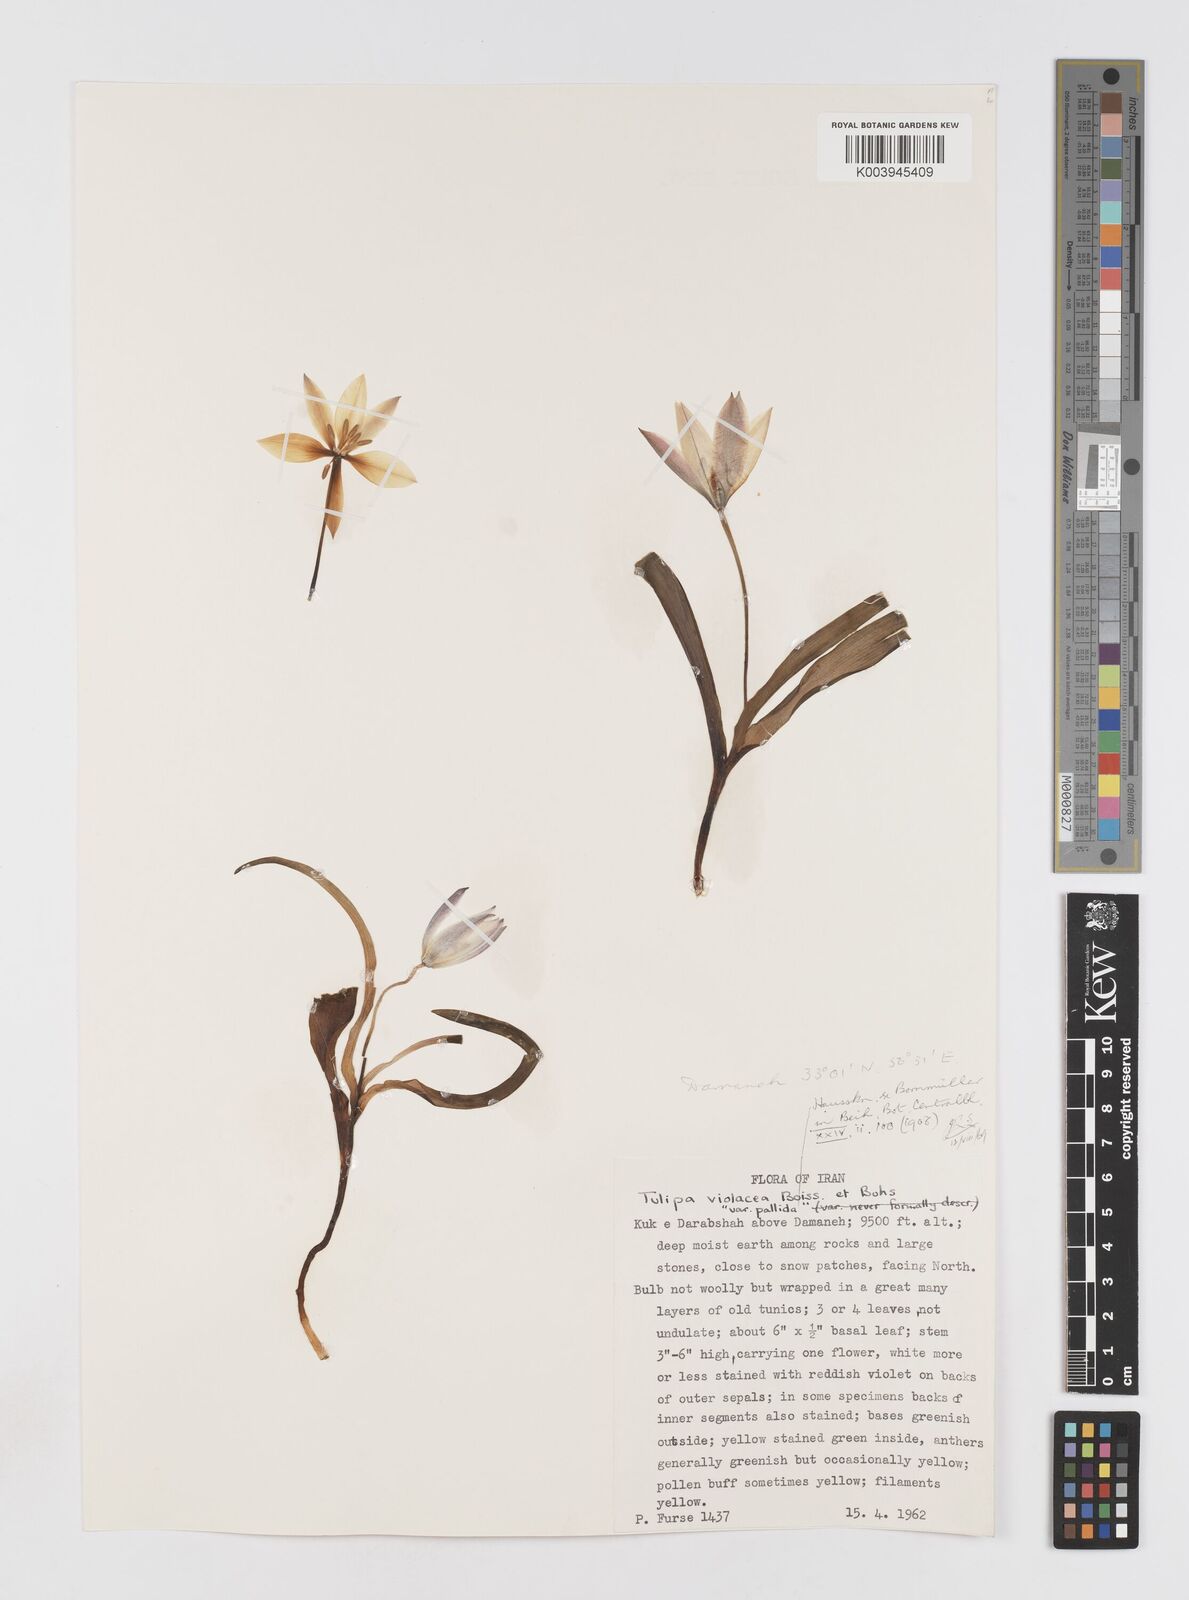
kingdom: Plantae
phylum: Tracheophyta
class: Liliopsida
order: Liliales
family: Liliaceae
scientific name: Liliaceae
